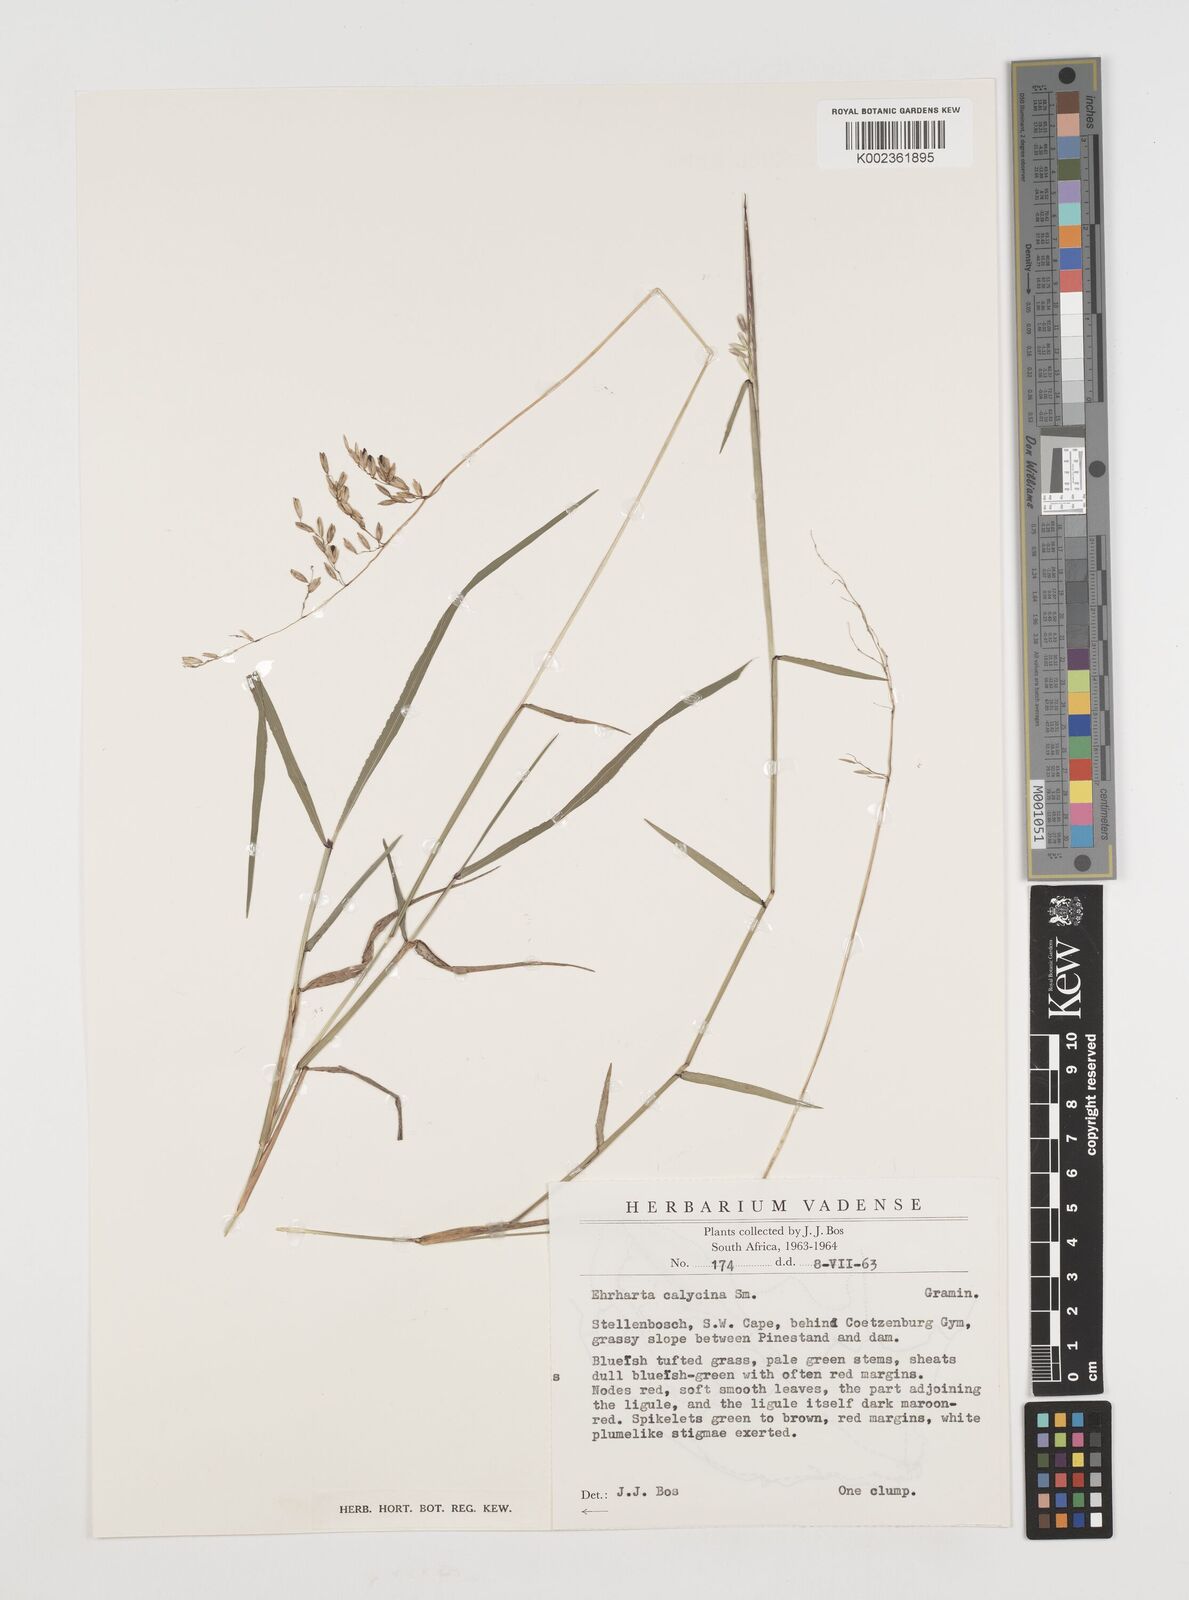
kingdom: Plantae
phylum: Tracheophyta
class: Liliopsida
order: Poales
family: Poaceae
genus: Ehrharta
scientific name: Ehrharta calycina
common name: Perennial veldtgrass
